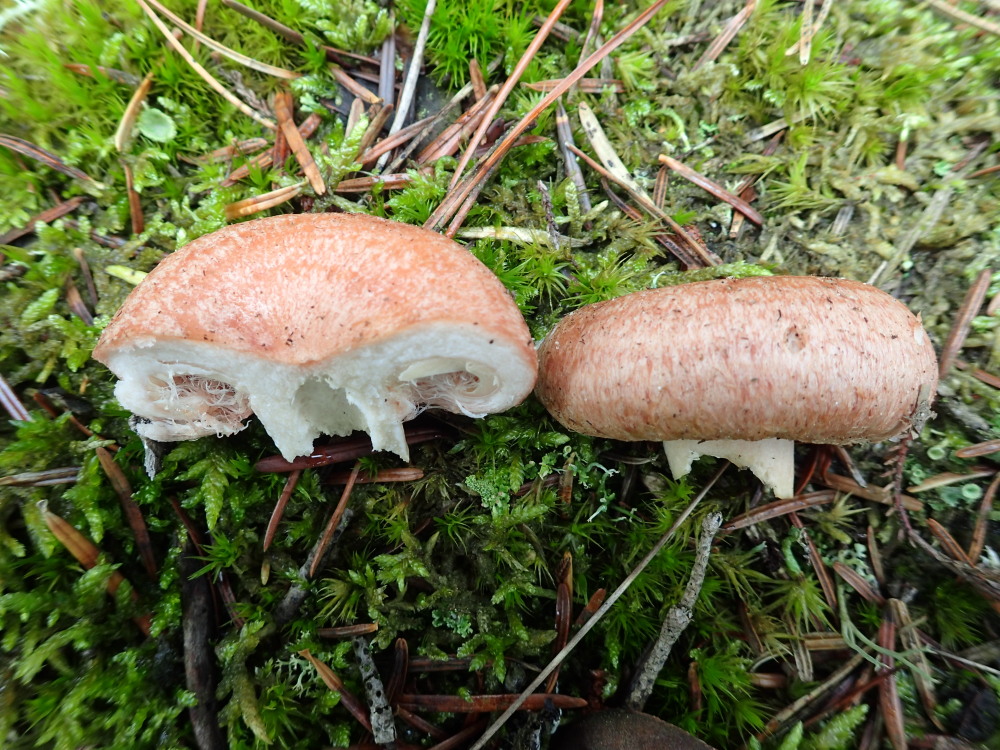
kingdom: Fungi
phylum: Basidiomycota
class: Agaricomycetes
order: Russulales
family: Russulaceae
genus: Lactarius
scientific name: Lactarius torminosus
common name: skægget mælkehat
